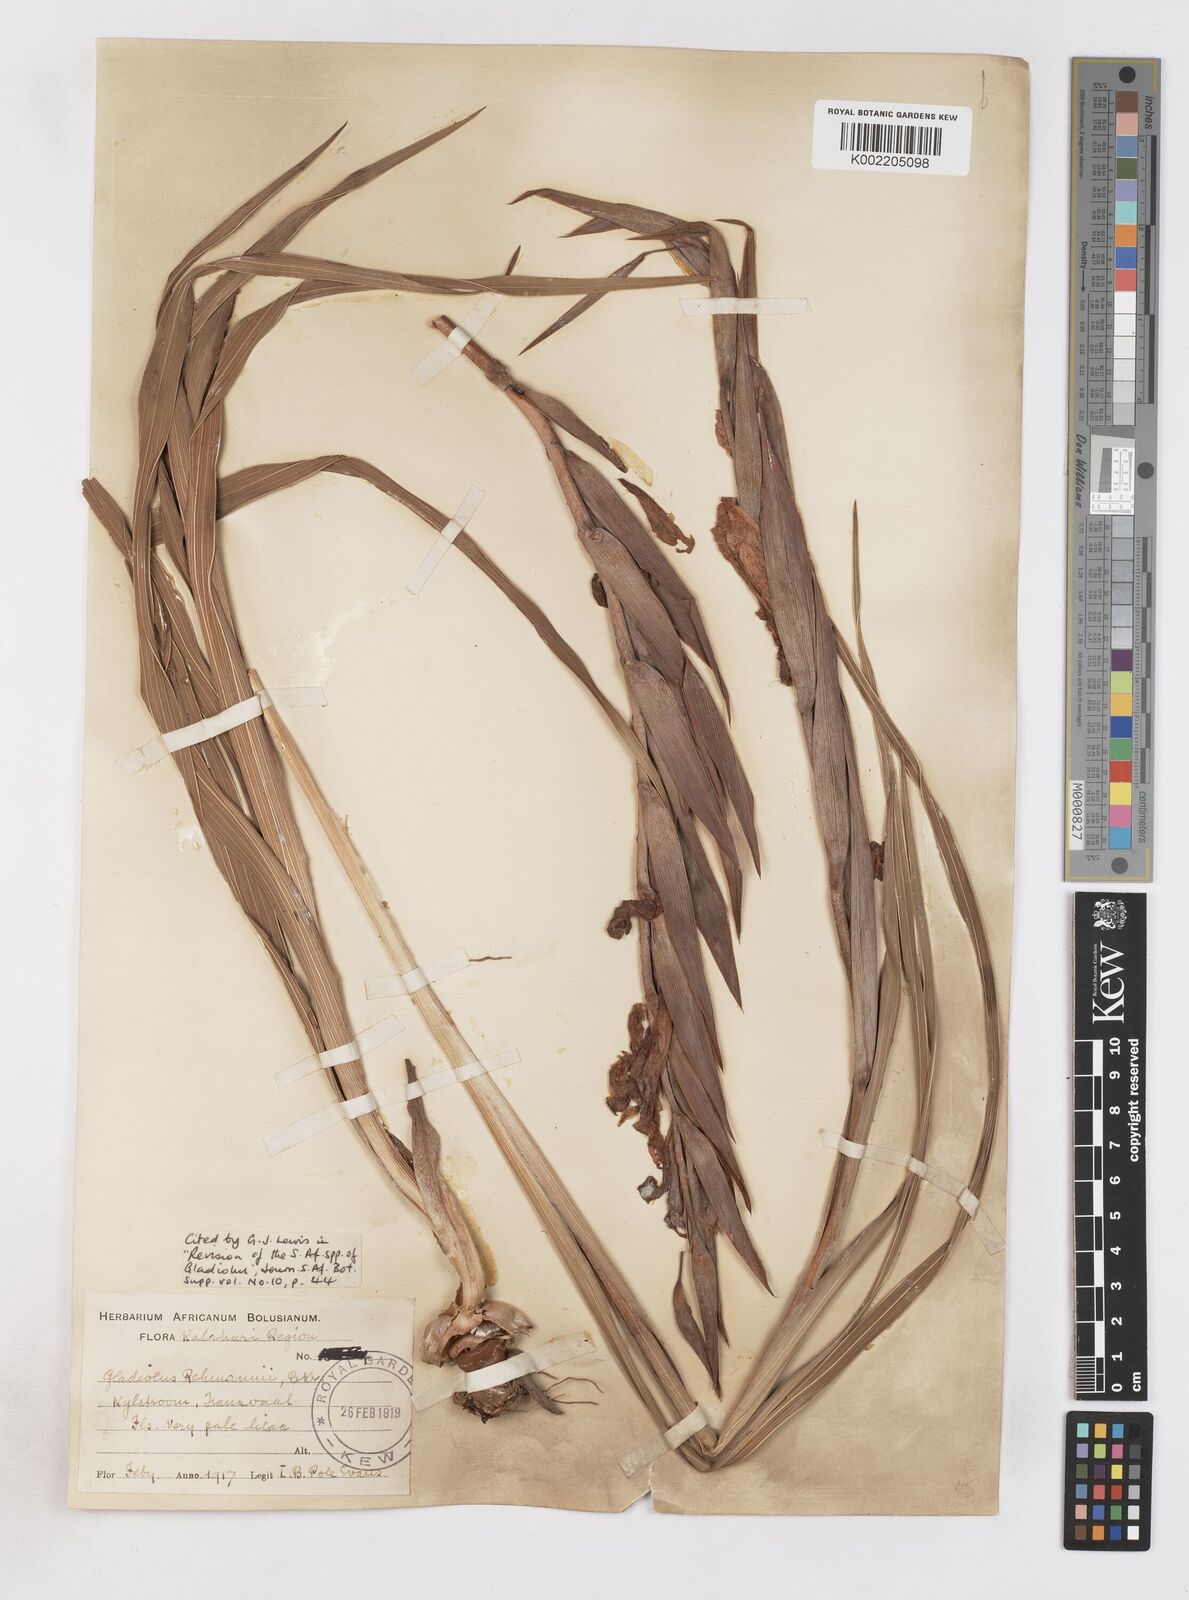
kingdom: Plantae
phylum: Tracheophyta
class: Liliopsida
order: Asparagales
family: Iridaceae
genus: Gladiolus
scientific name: Gladiolus rehmannii
